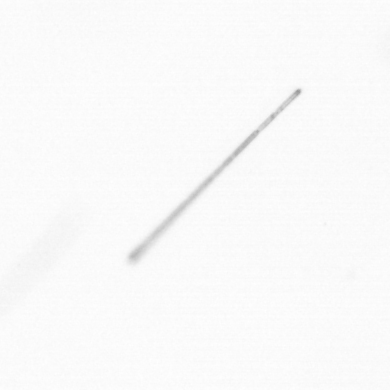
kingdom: Chromista
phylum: Ochrophyta
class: Bacillariophyceae
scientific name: Bacillariophyceae
